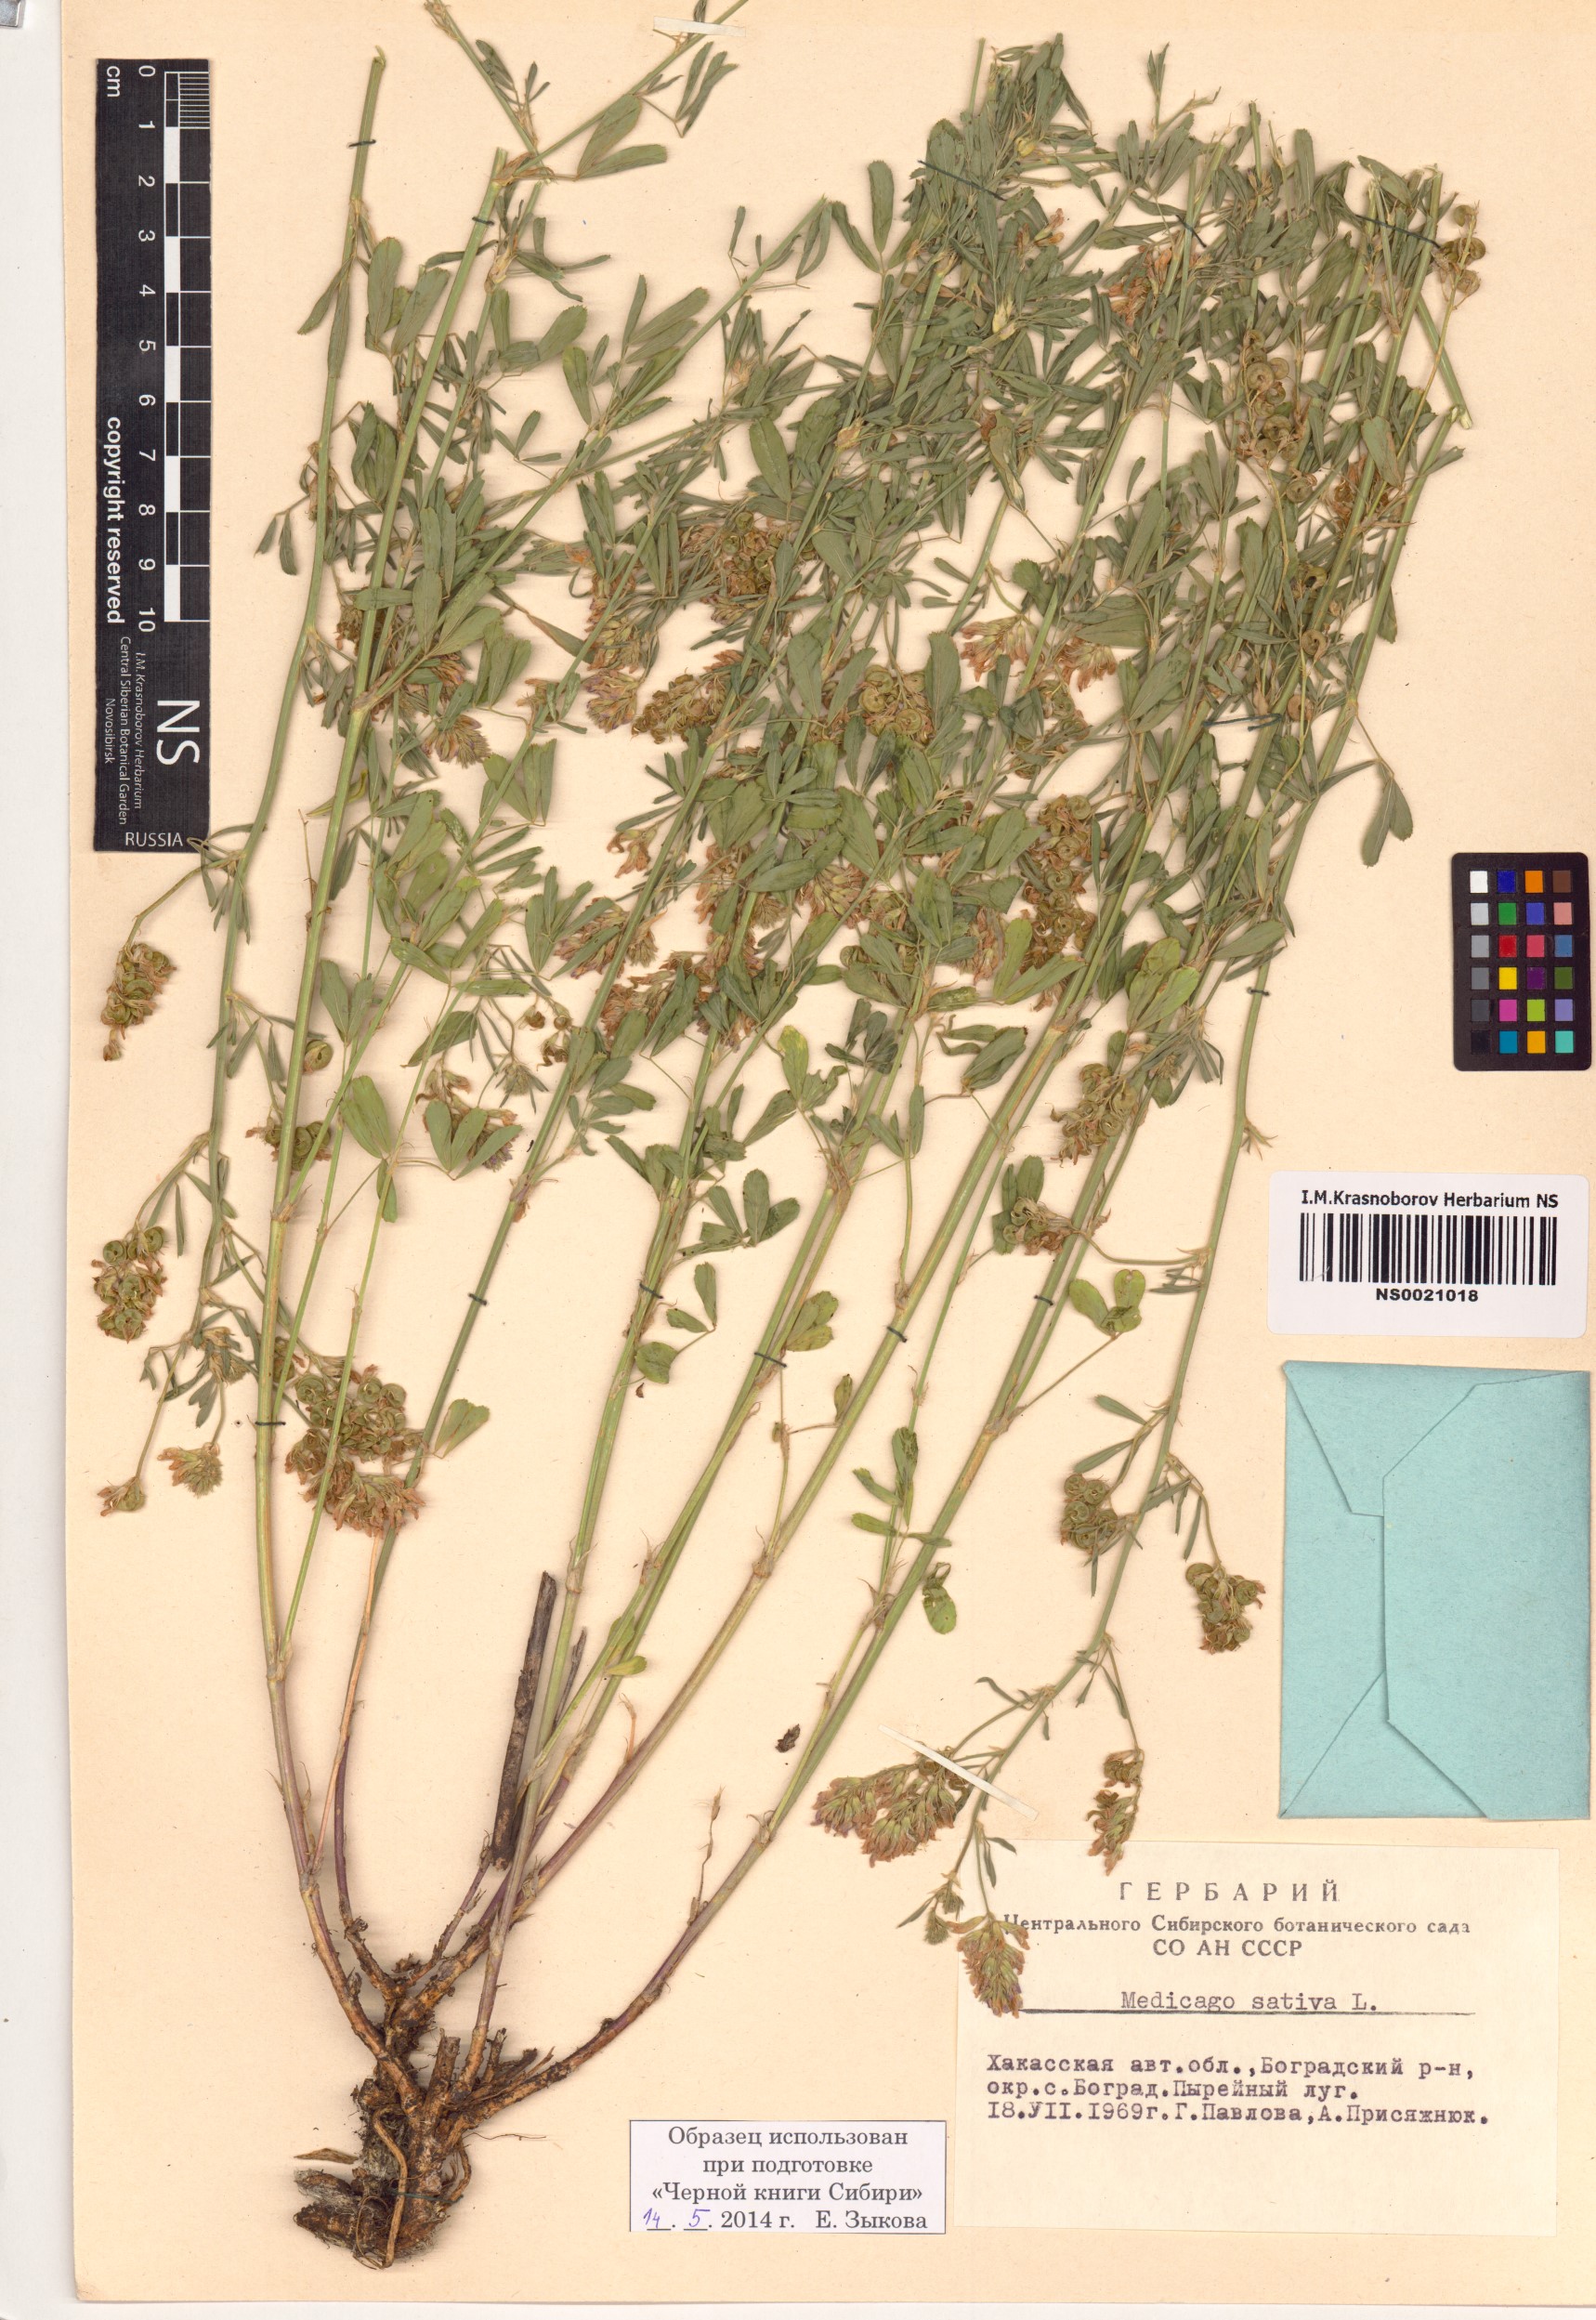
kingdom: Plantae
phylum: Tracheophyta
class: Magnoliopsida
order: Fabales
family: Fabaceae
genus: Medicago
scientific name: Medicago sativa
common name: Alfalfa
